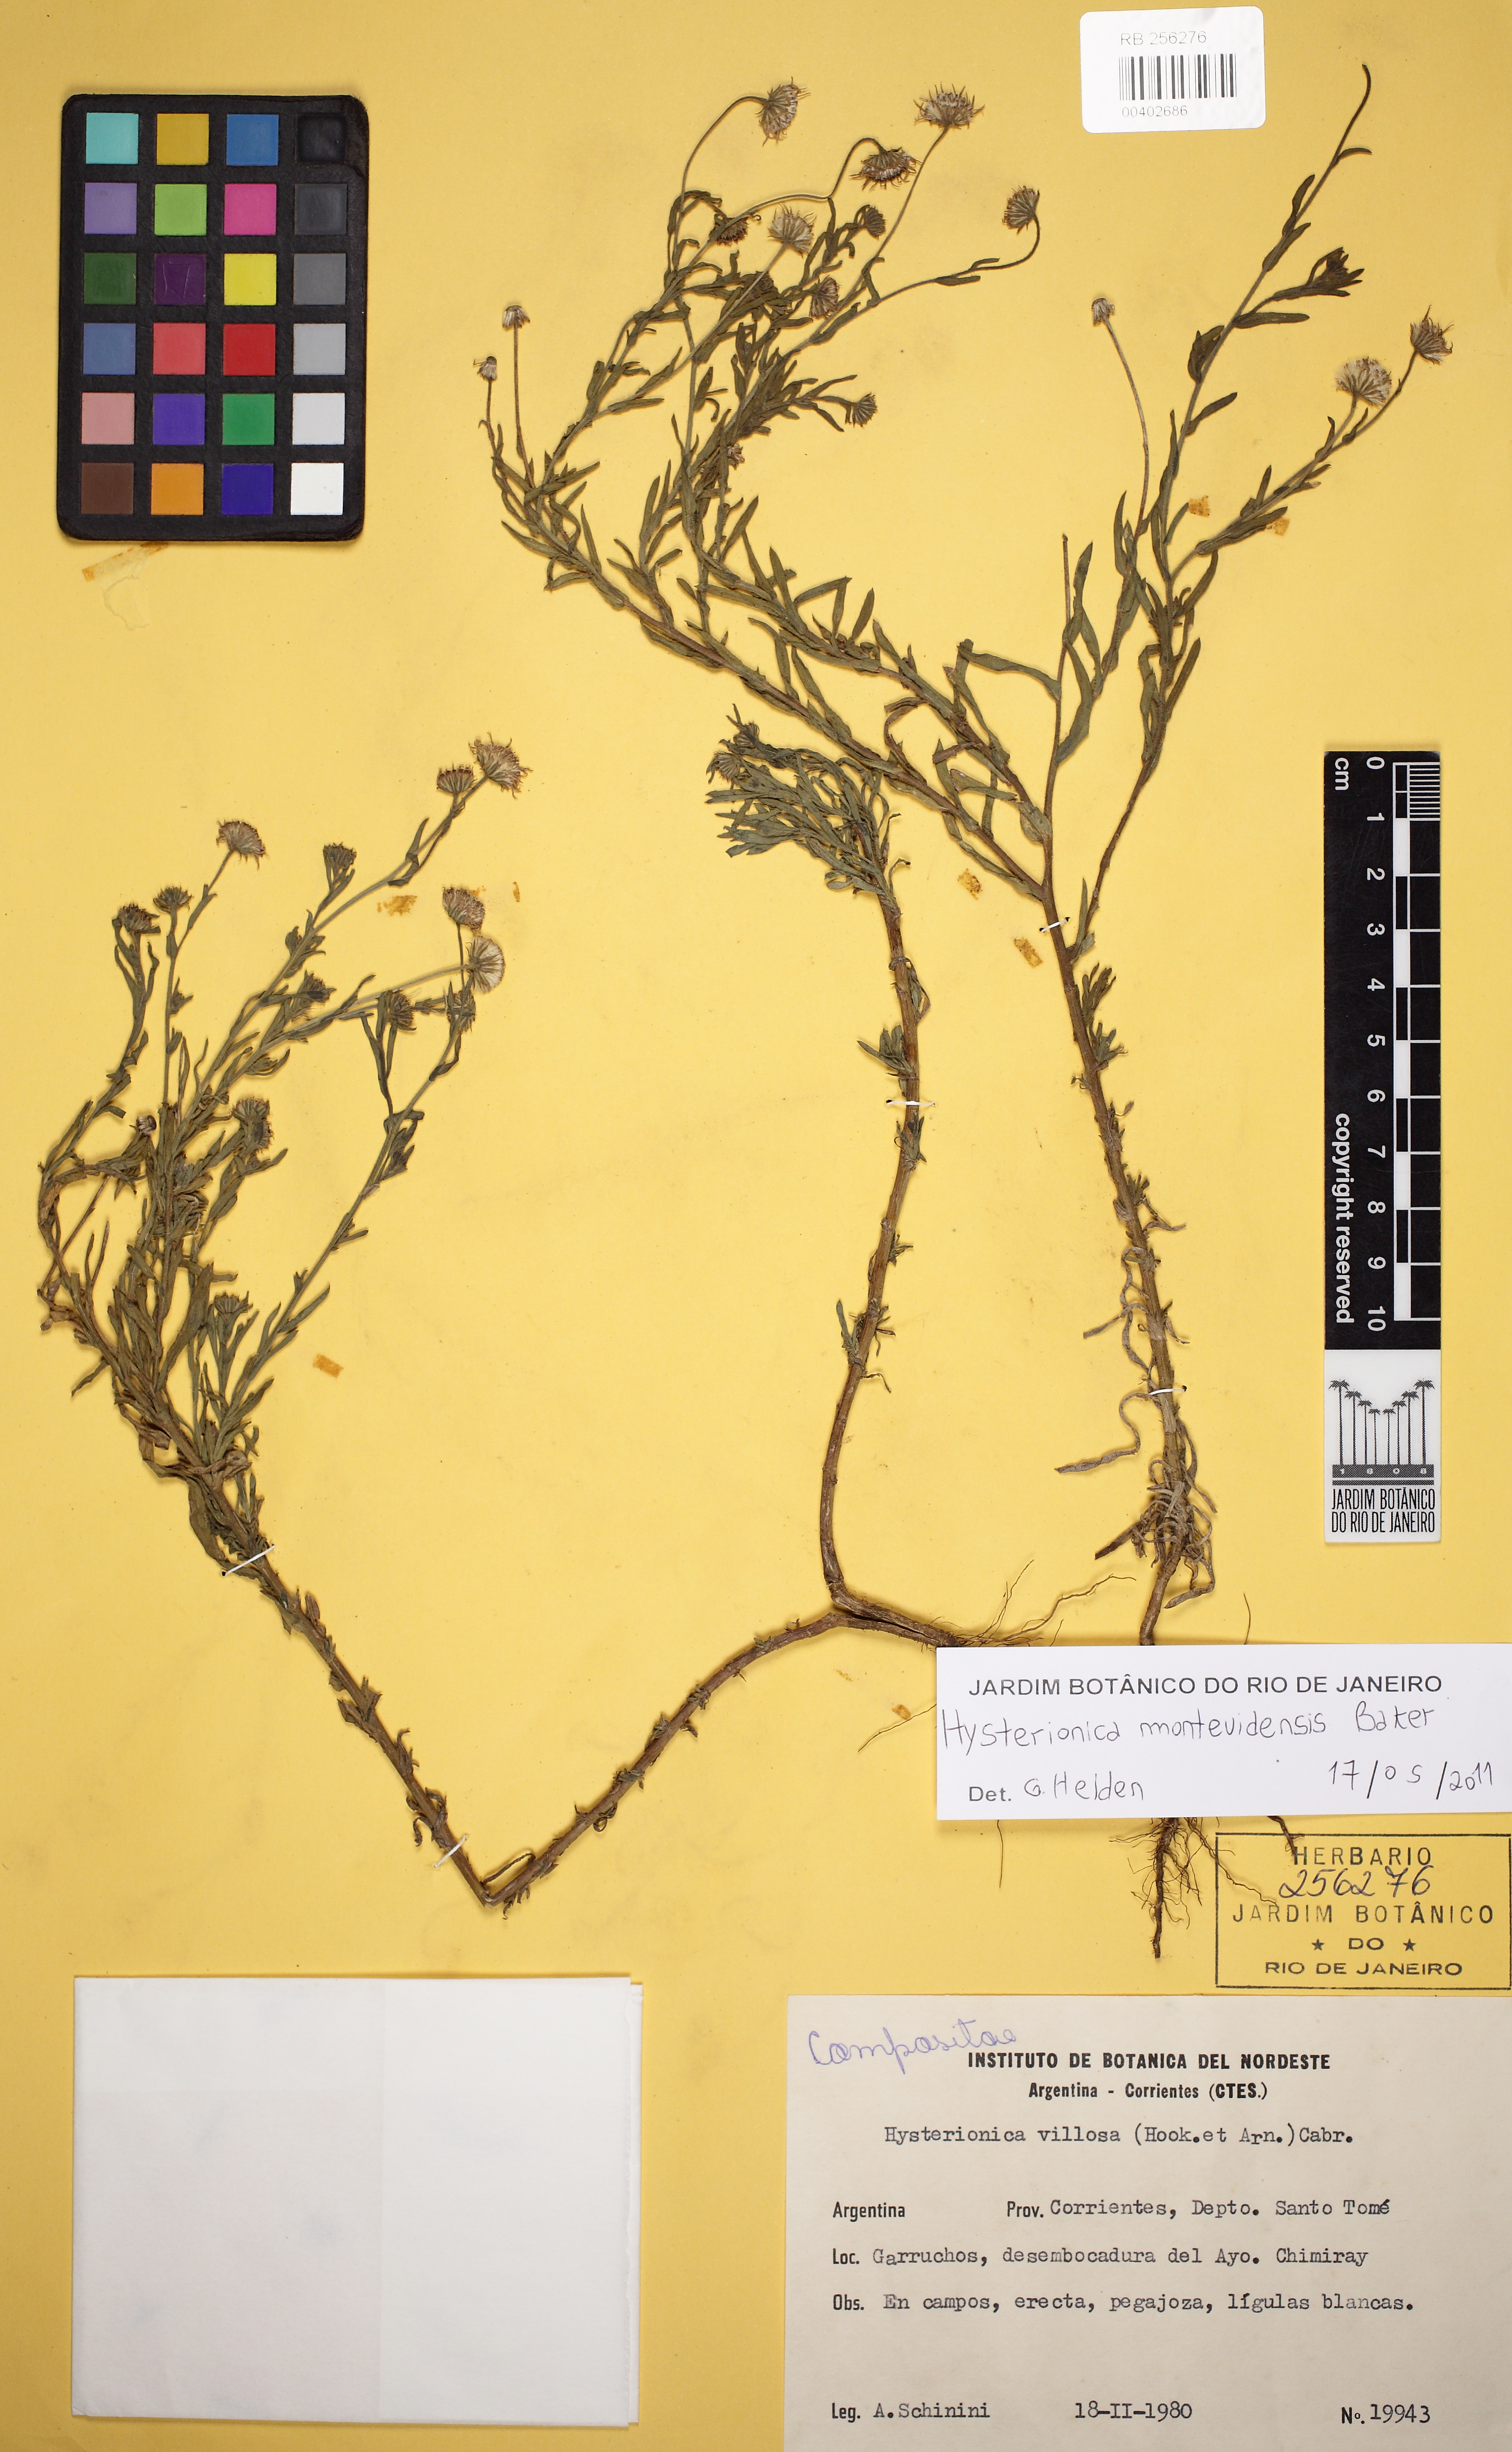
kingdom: Plantae
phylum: Tracheophyta
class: Magnoliopsida
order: Asterales
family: Asteraceae
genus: Hysterionica
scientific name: Hysterionica resinosa
